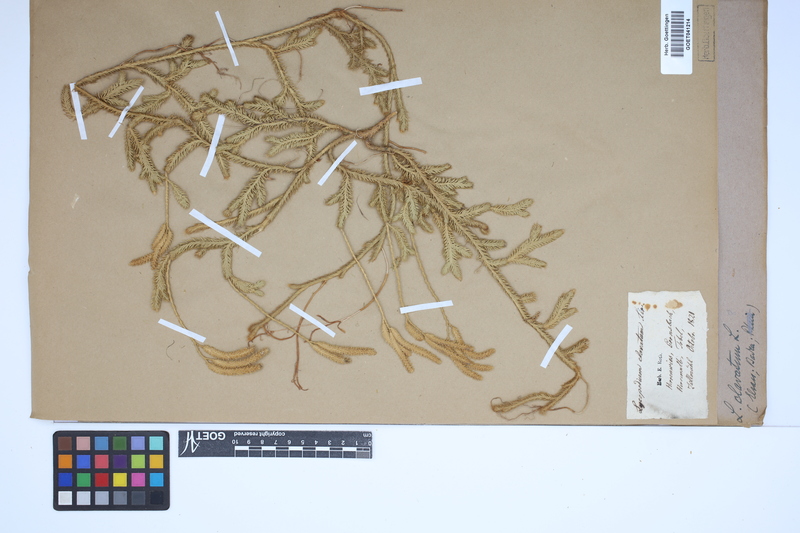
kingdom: Plantae
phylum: Tracheophyta
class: Lycopodiopsida
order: Lycopodiales
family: Lycopodiaceae
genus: Lycopodium
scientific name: Lycopodium clavatum
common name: Stag's-horn clubmoss
